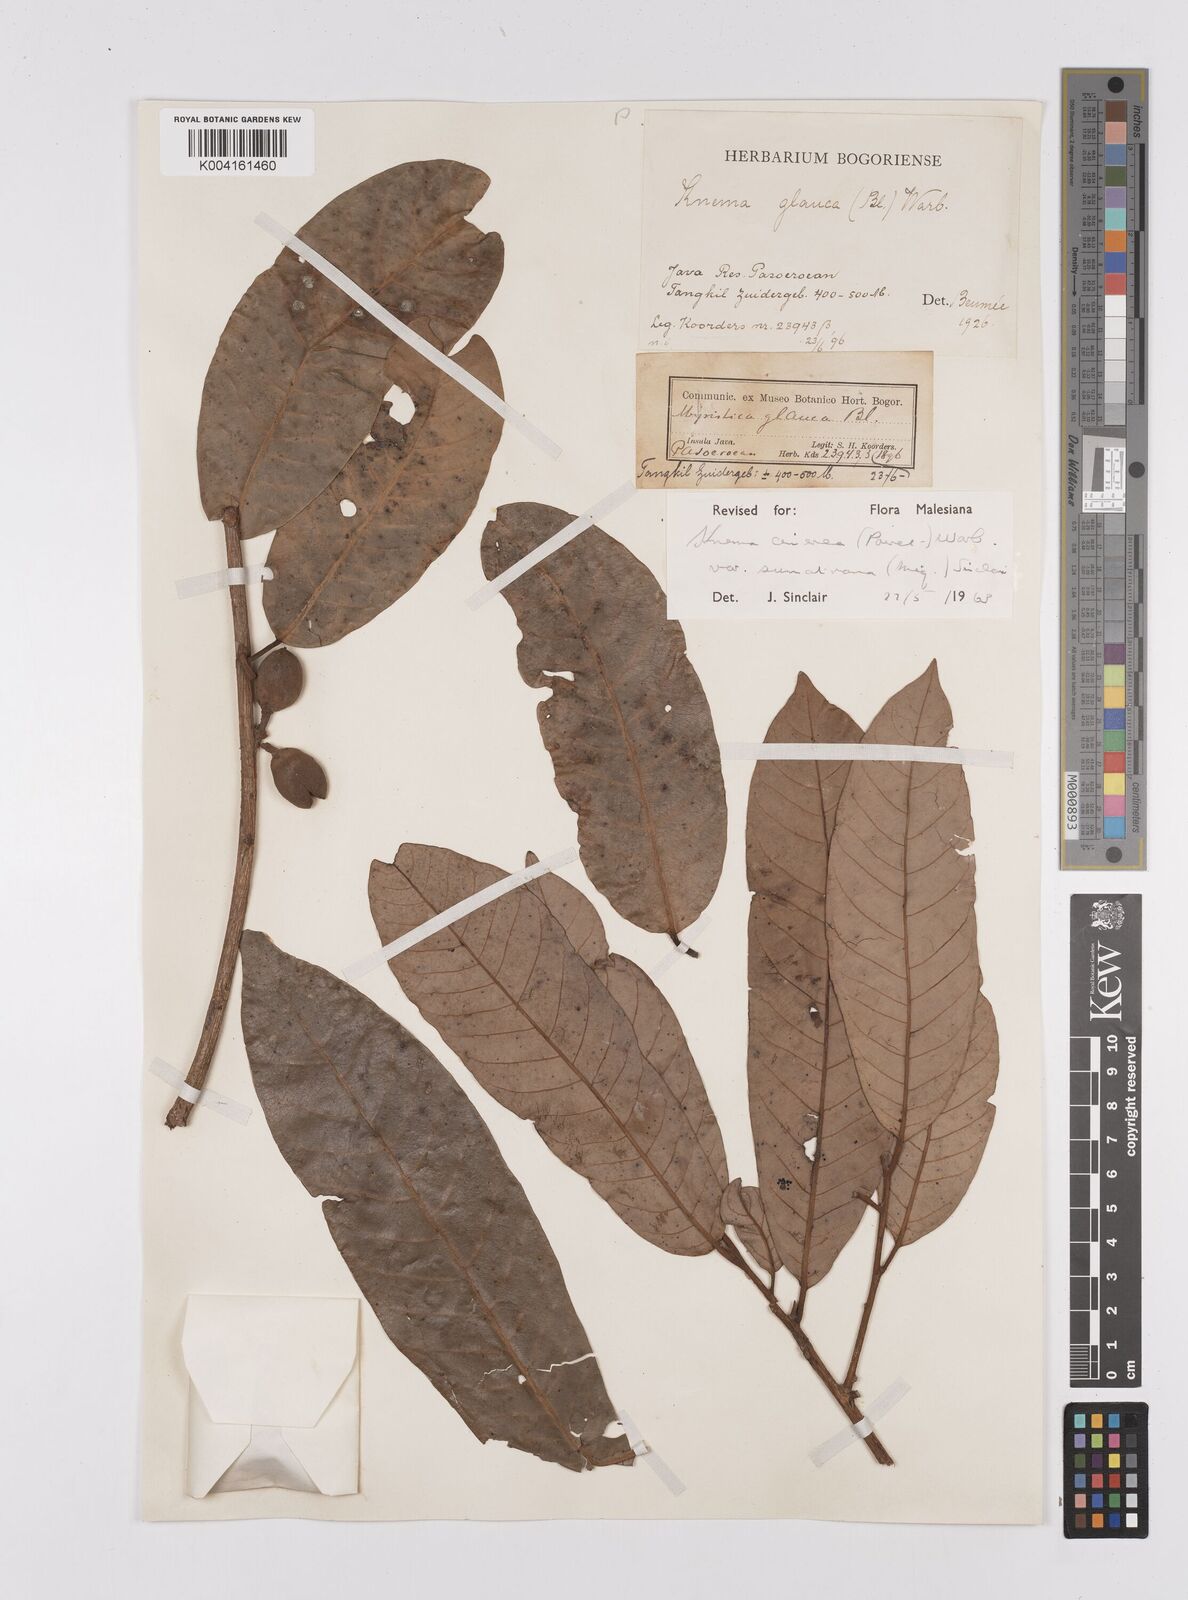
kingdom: Plantae
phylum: Tracheophyta
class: Magnoliopsida
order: Magnoliales
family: Myristicaceae
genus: Knema
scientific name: Knema
